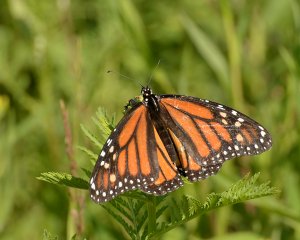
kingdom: Animalia
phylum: Arthropoda
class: Insecta
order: Lepidoptera
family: Nymphalidae
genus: Danaus
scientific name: Danaus plexippus
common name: Monarch
